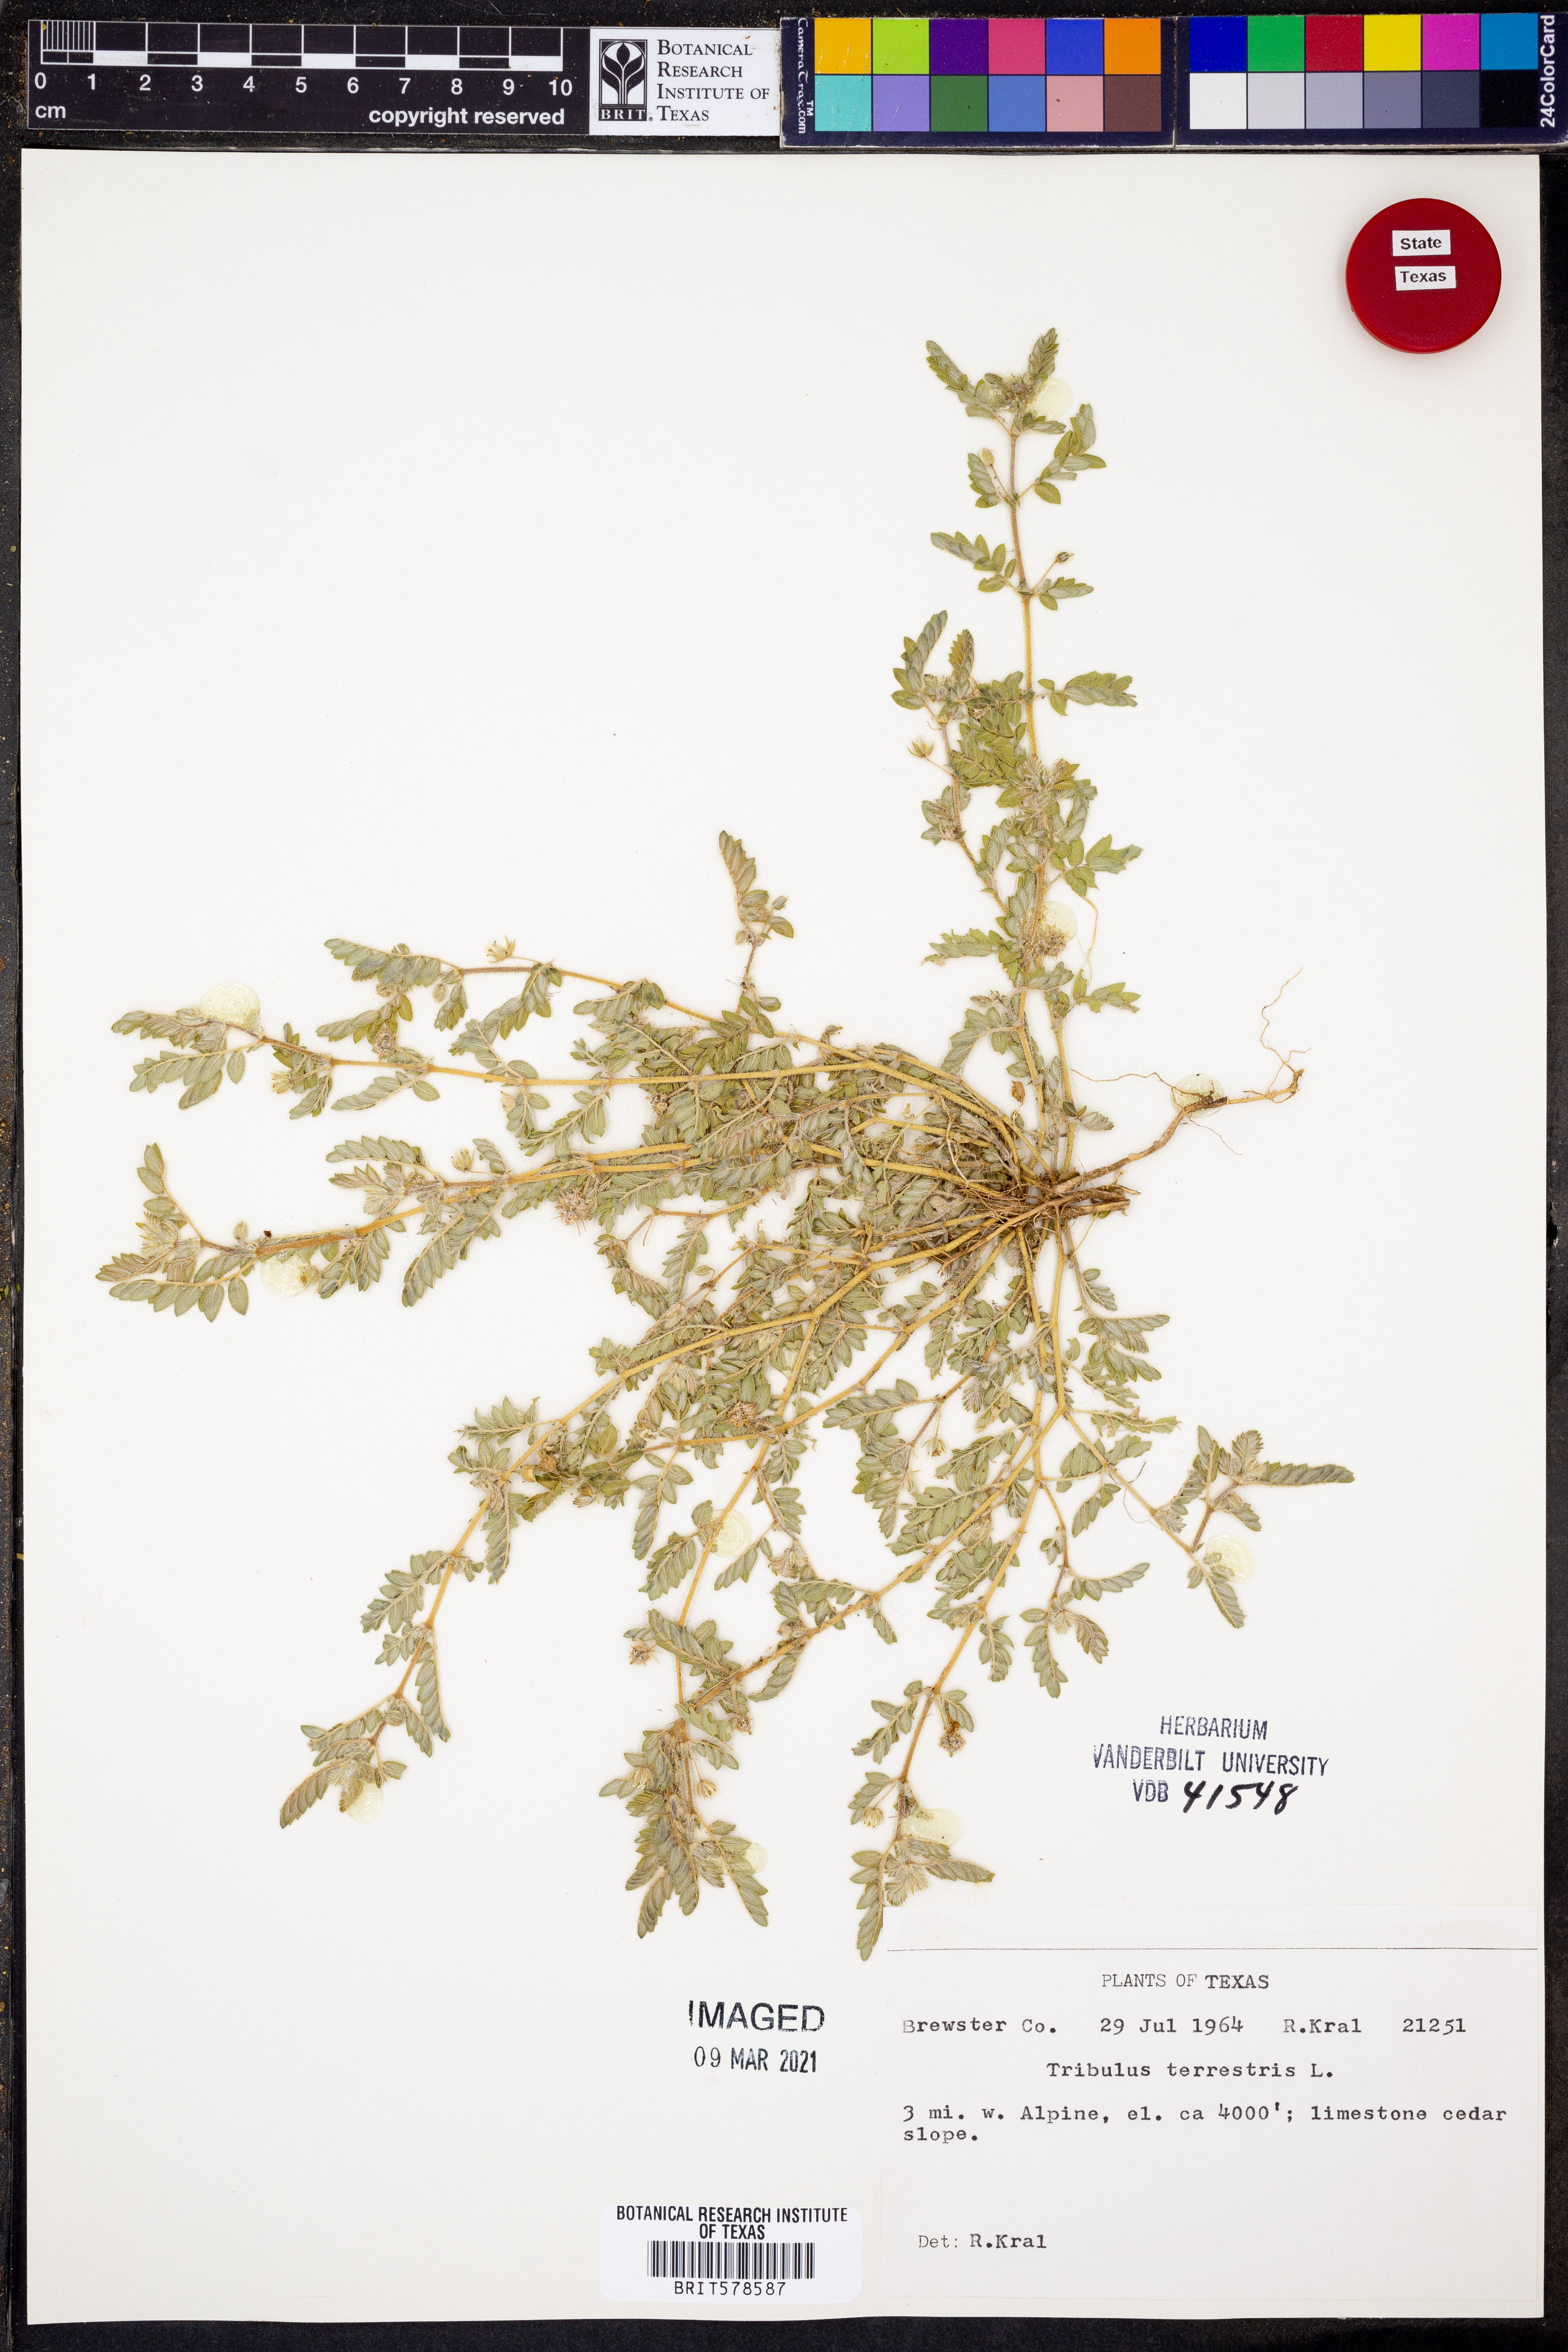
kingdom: Plantae
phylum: Tracheophyta
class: Magnoliopsida
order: Zygophyllales
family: Zygophyllaceae
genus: Tribulus
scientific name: Tribulus terrestris
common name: Puncturevine
